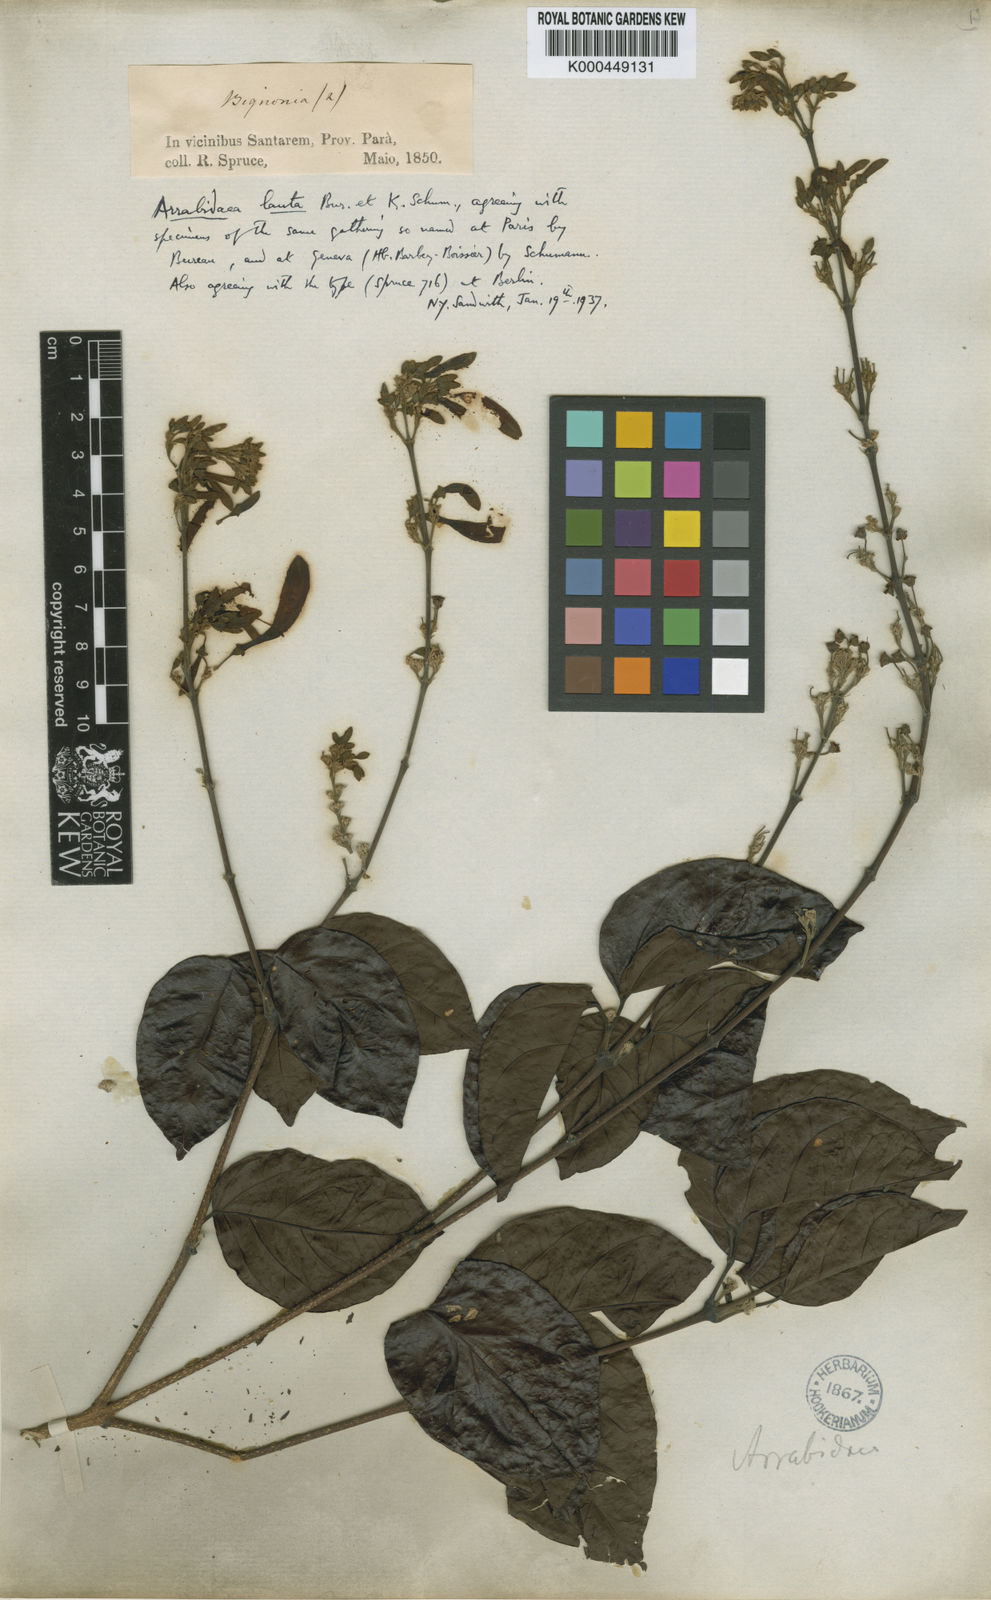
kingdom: Plantae
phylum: Tracheophyta
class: Magnoliopsida
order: Lamiales
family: Bignoniaceae
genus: Fridericia
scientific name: Fridericia lauta
